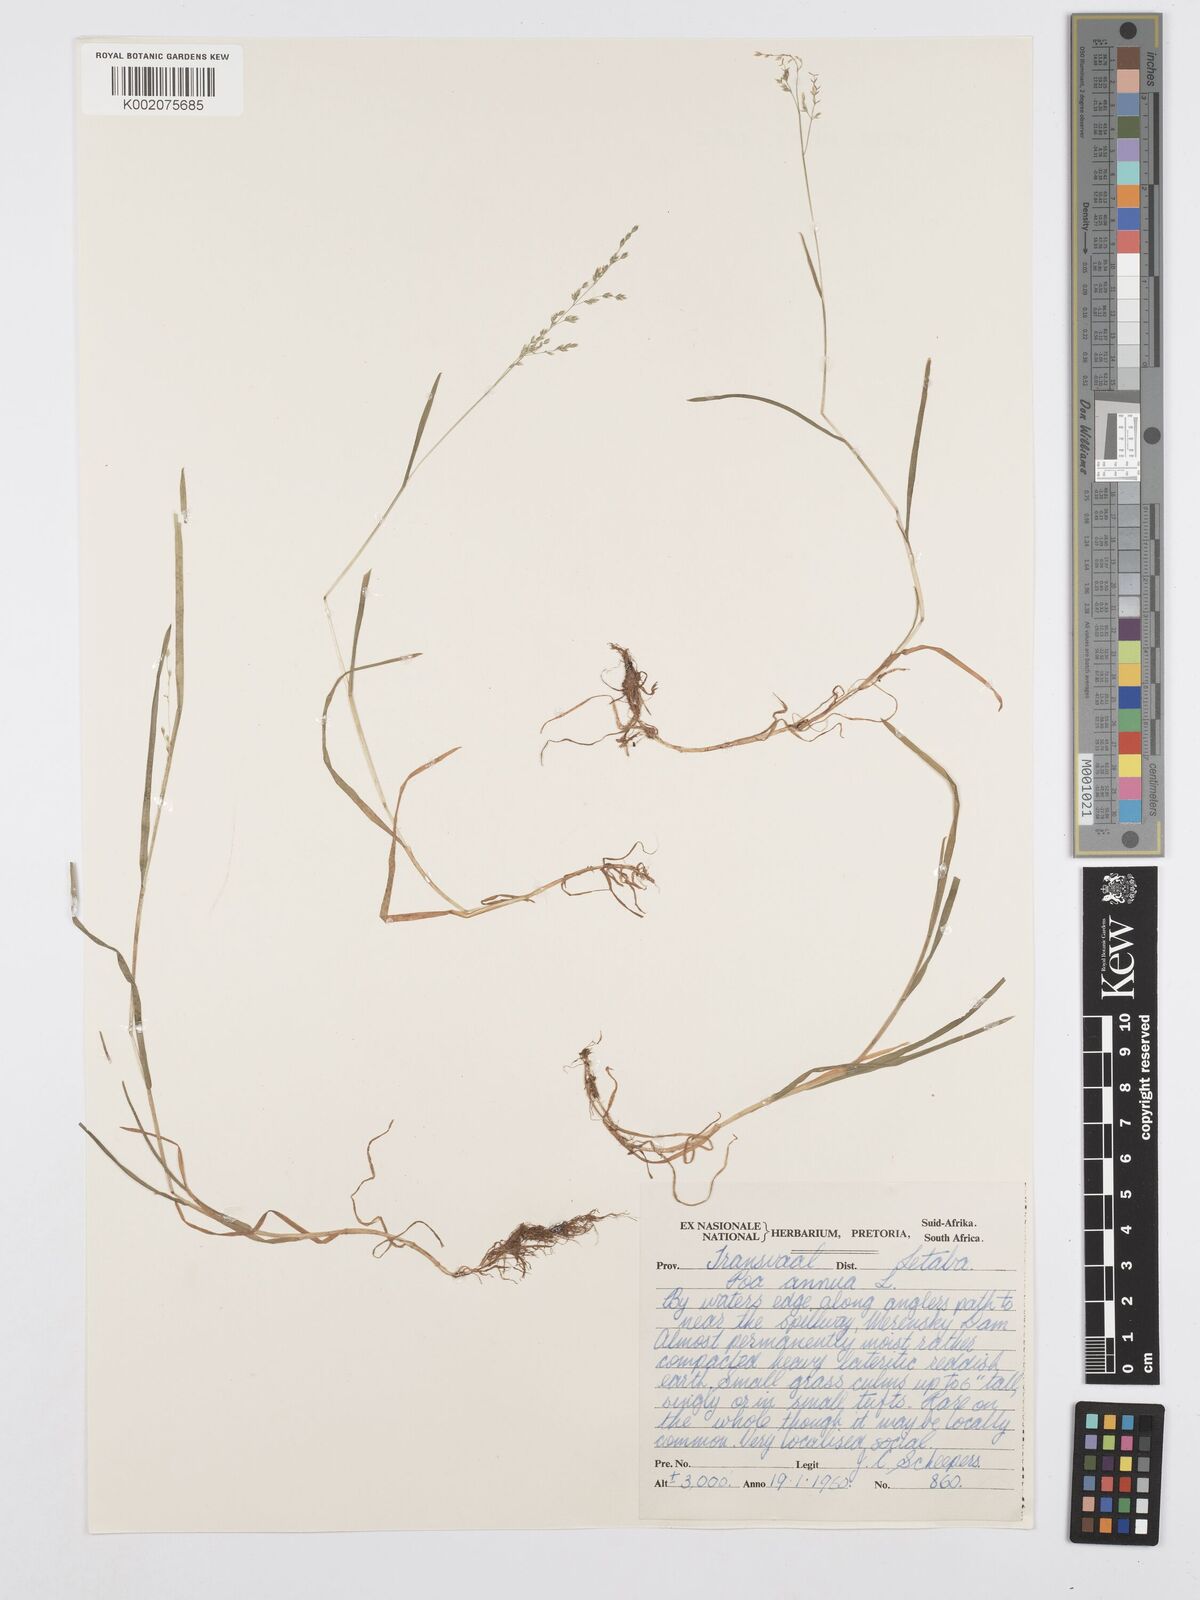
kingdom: Plantae
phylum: Tracheophyta
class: Liliopsida
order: Poales
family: Poaceae
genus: Poa
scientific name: Poa annua
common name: Annual bluegrass
